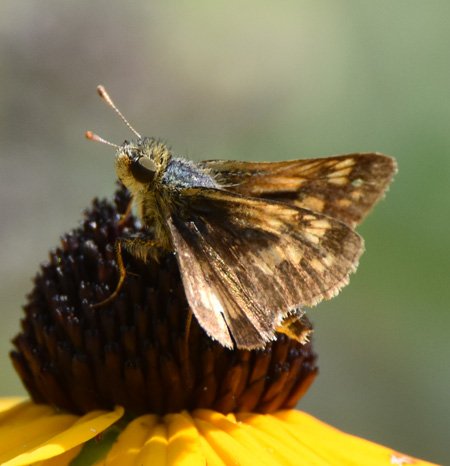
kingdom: Animalia
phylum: Arthropoda
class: Insecta
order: Lepidoptera
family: Hesperiidae
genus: Polites
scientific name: Polites coras
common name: Peck's Skipper
